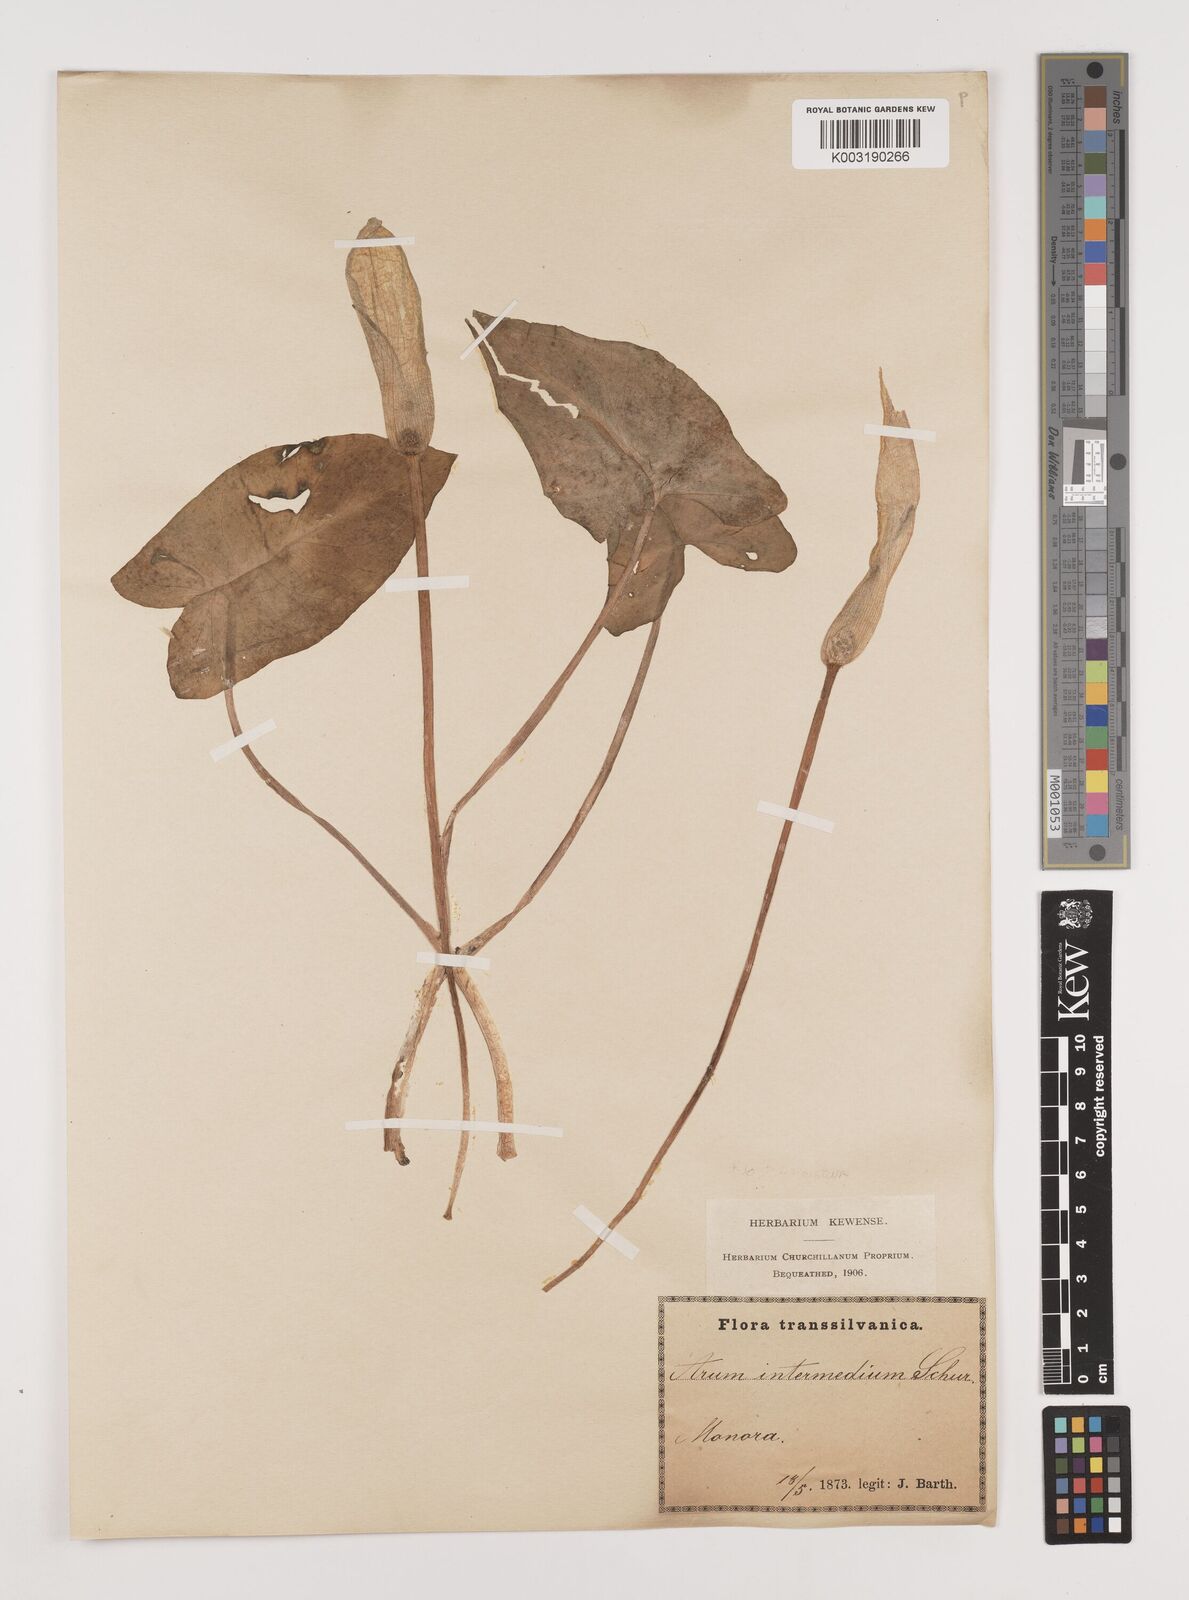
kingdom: Plantae
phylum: Tracheophyta
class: Liliopsida
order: Alismatales
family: Araceae
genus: Arum
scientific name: Arum cylindraceum
